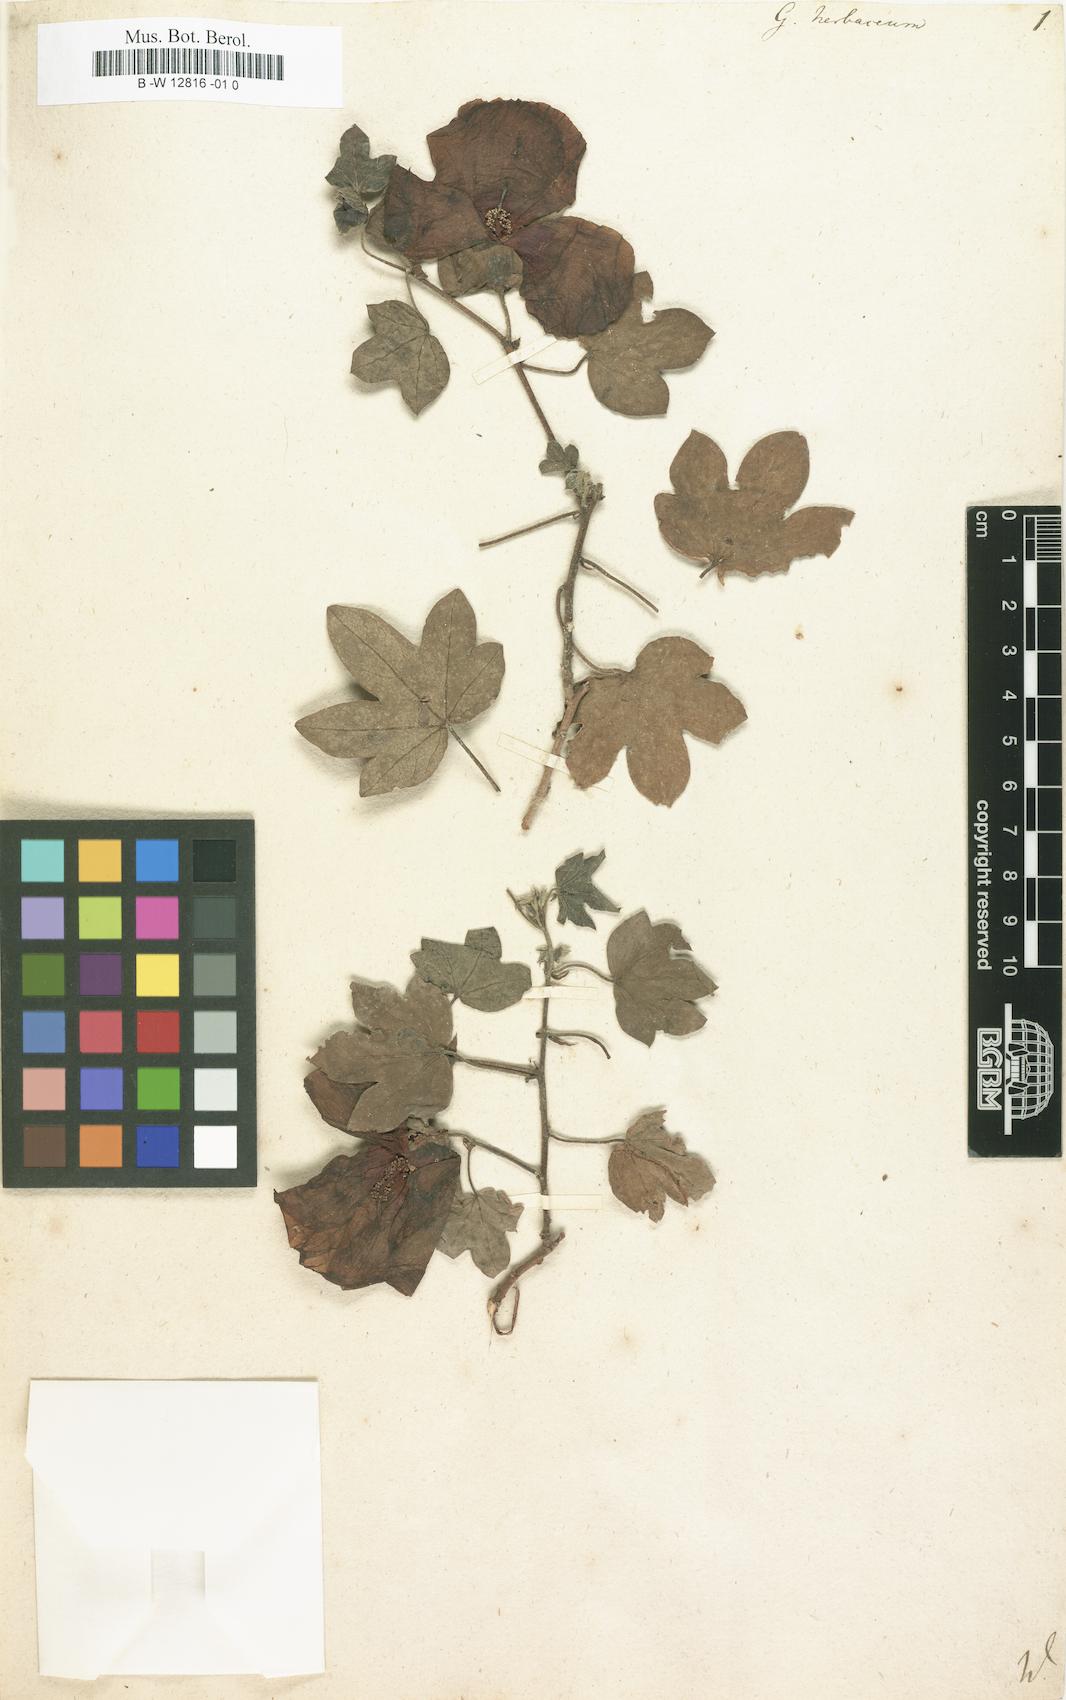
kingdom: Plantae
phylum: Tracheophyta
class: Magnoliopsida
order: Malvales
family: Malvaceae
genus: Gossypium
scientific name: Gossypium herbaceum
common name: Levant cotton
